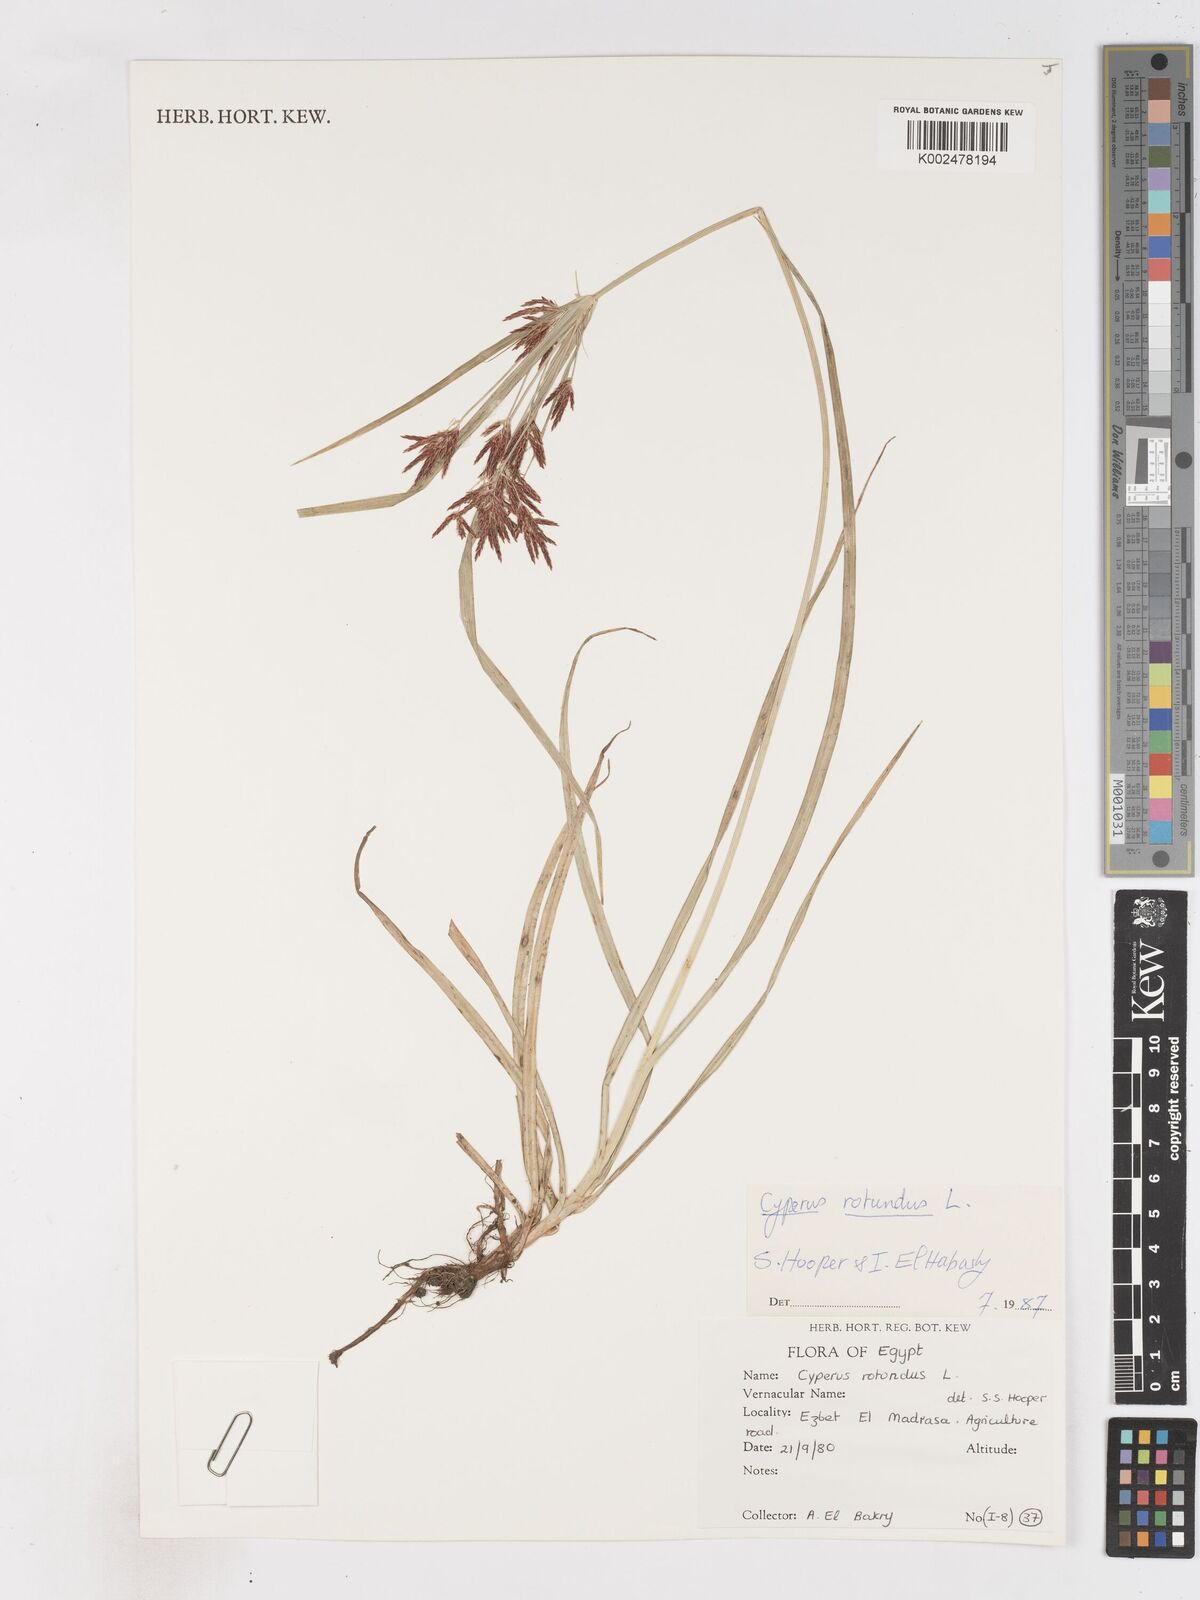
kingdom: Plantae
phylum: Tracheophyta
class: Liliopsida
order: Poales
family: Cyperaceae
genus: Cyperus
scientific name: Cyperus rotundus
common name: Nutgrass
